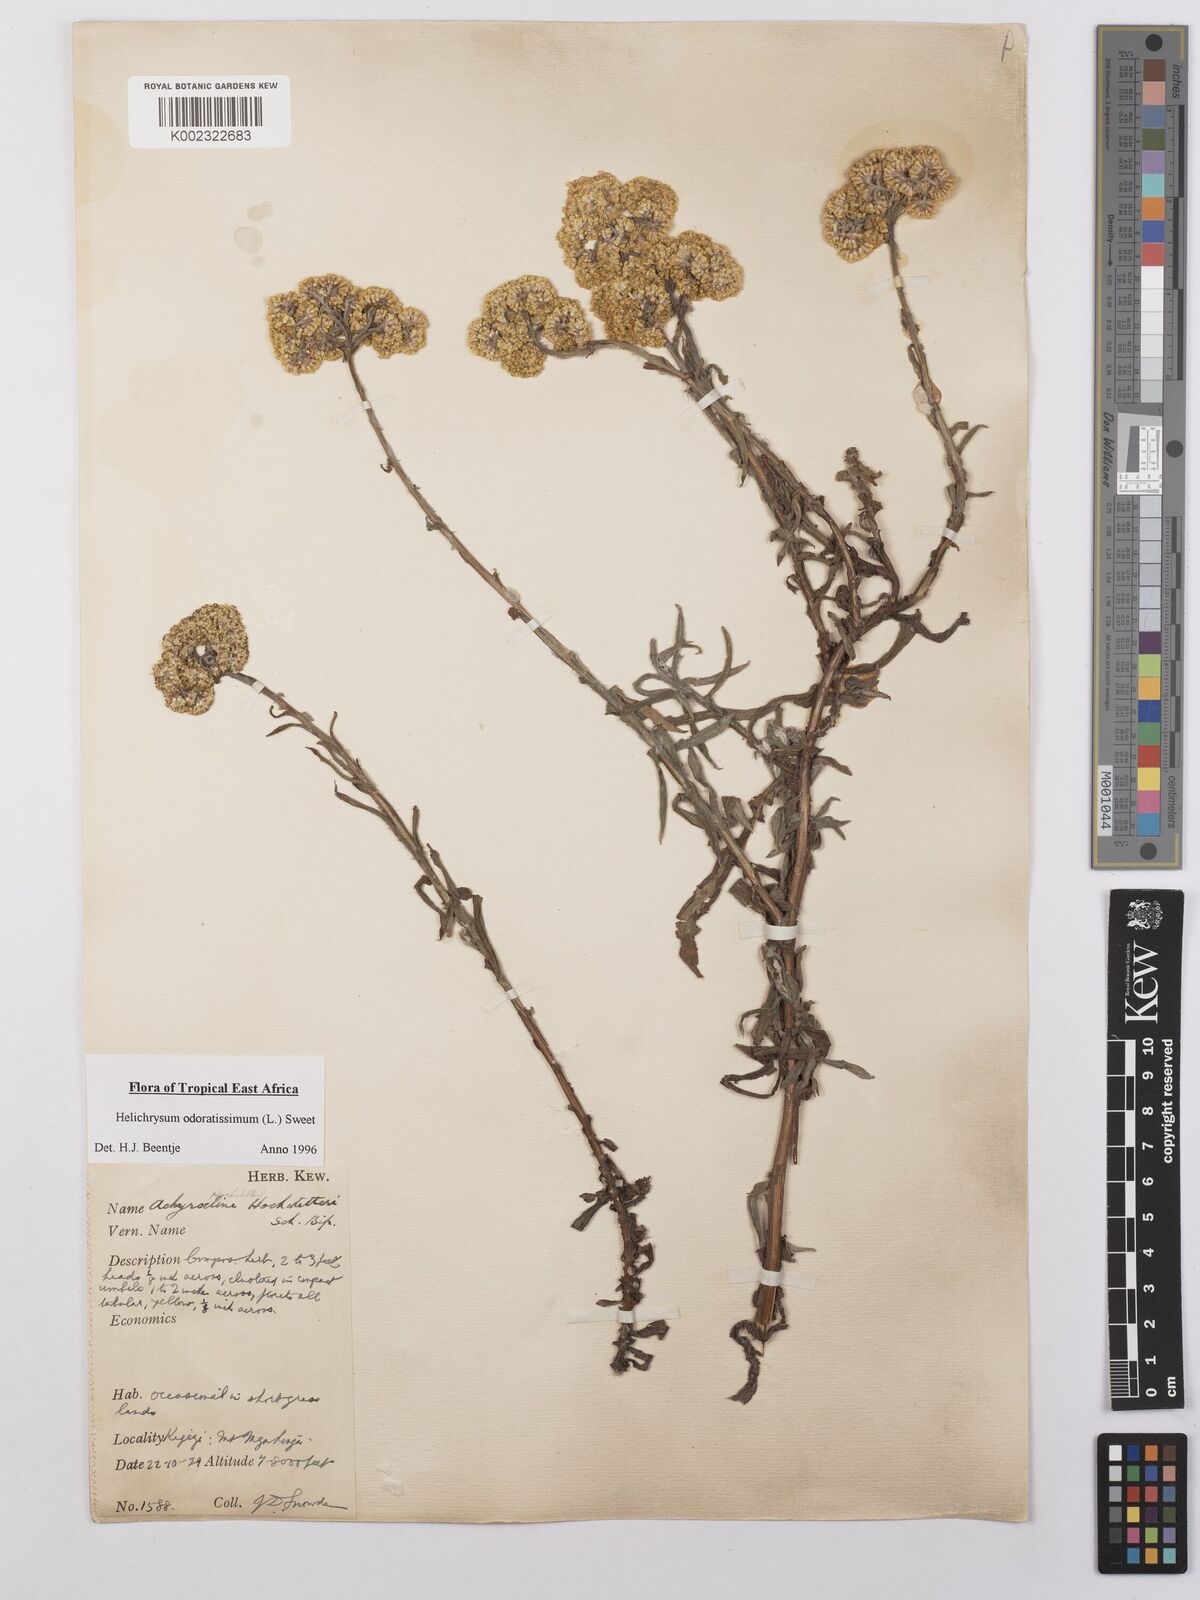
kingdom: Plantae
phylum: Tracheophyta
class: Magnoliopsida
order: Asterales
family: Asteraceae
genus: Helichrysum
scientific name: Helichrysum odoratissimum
